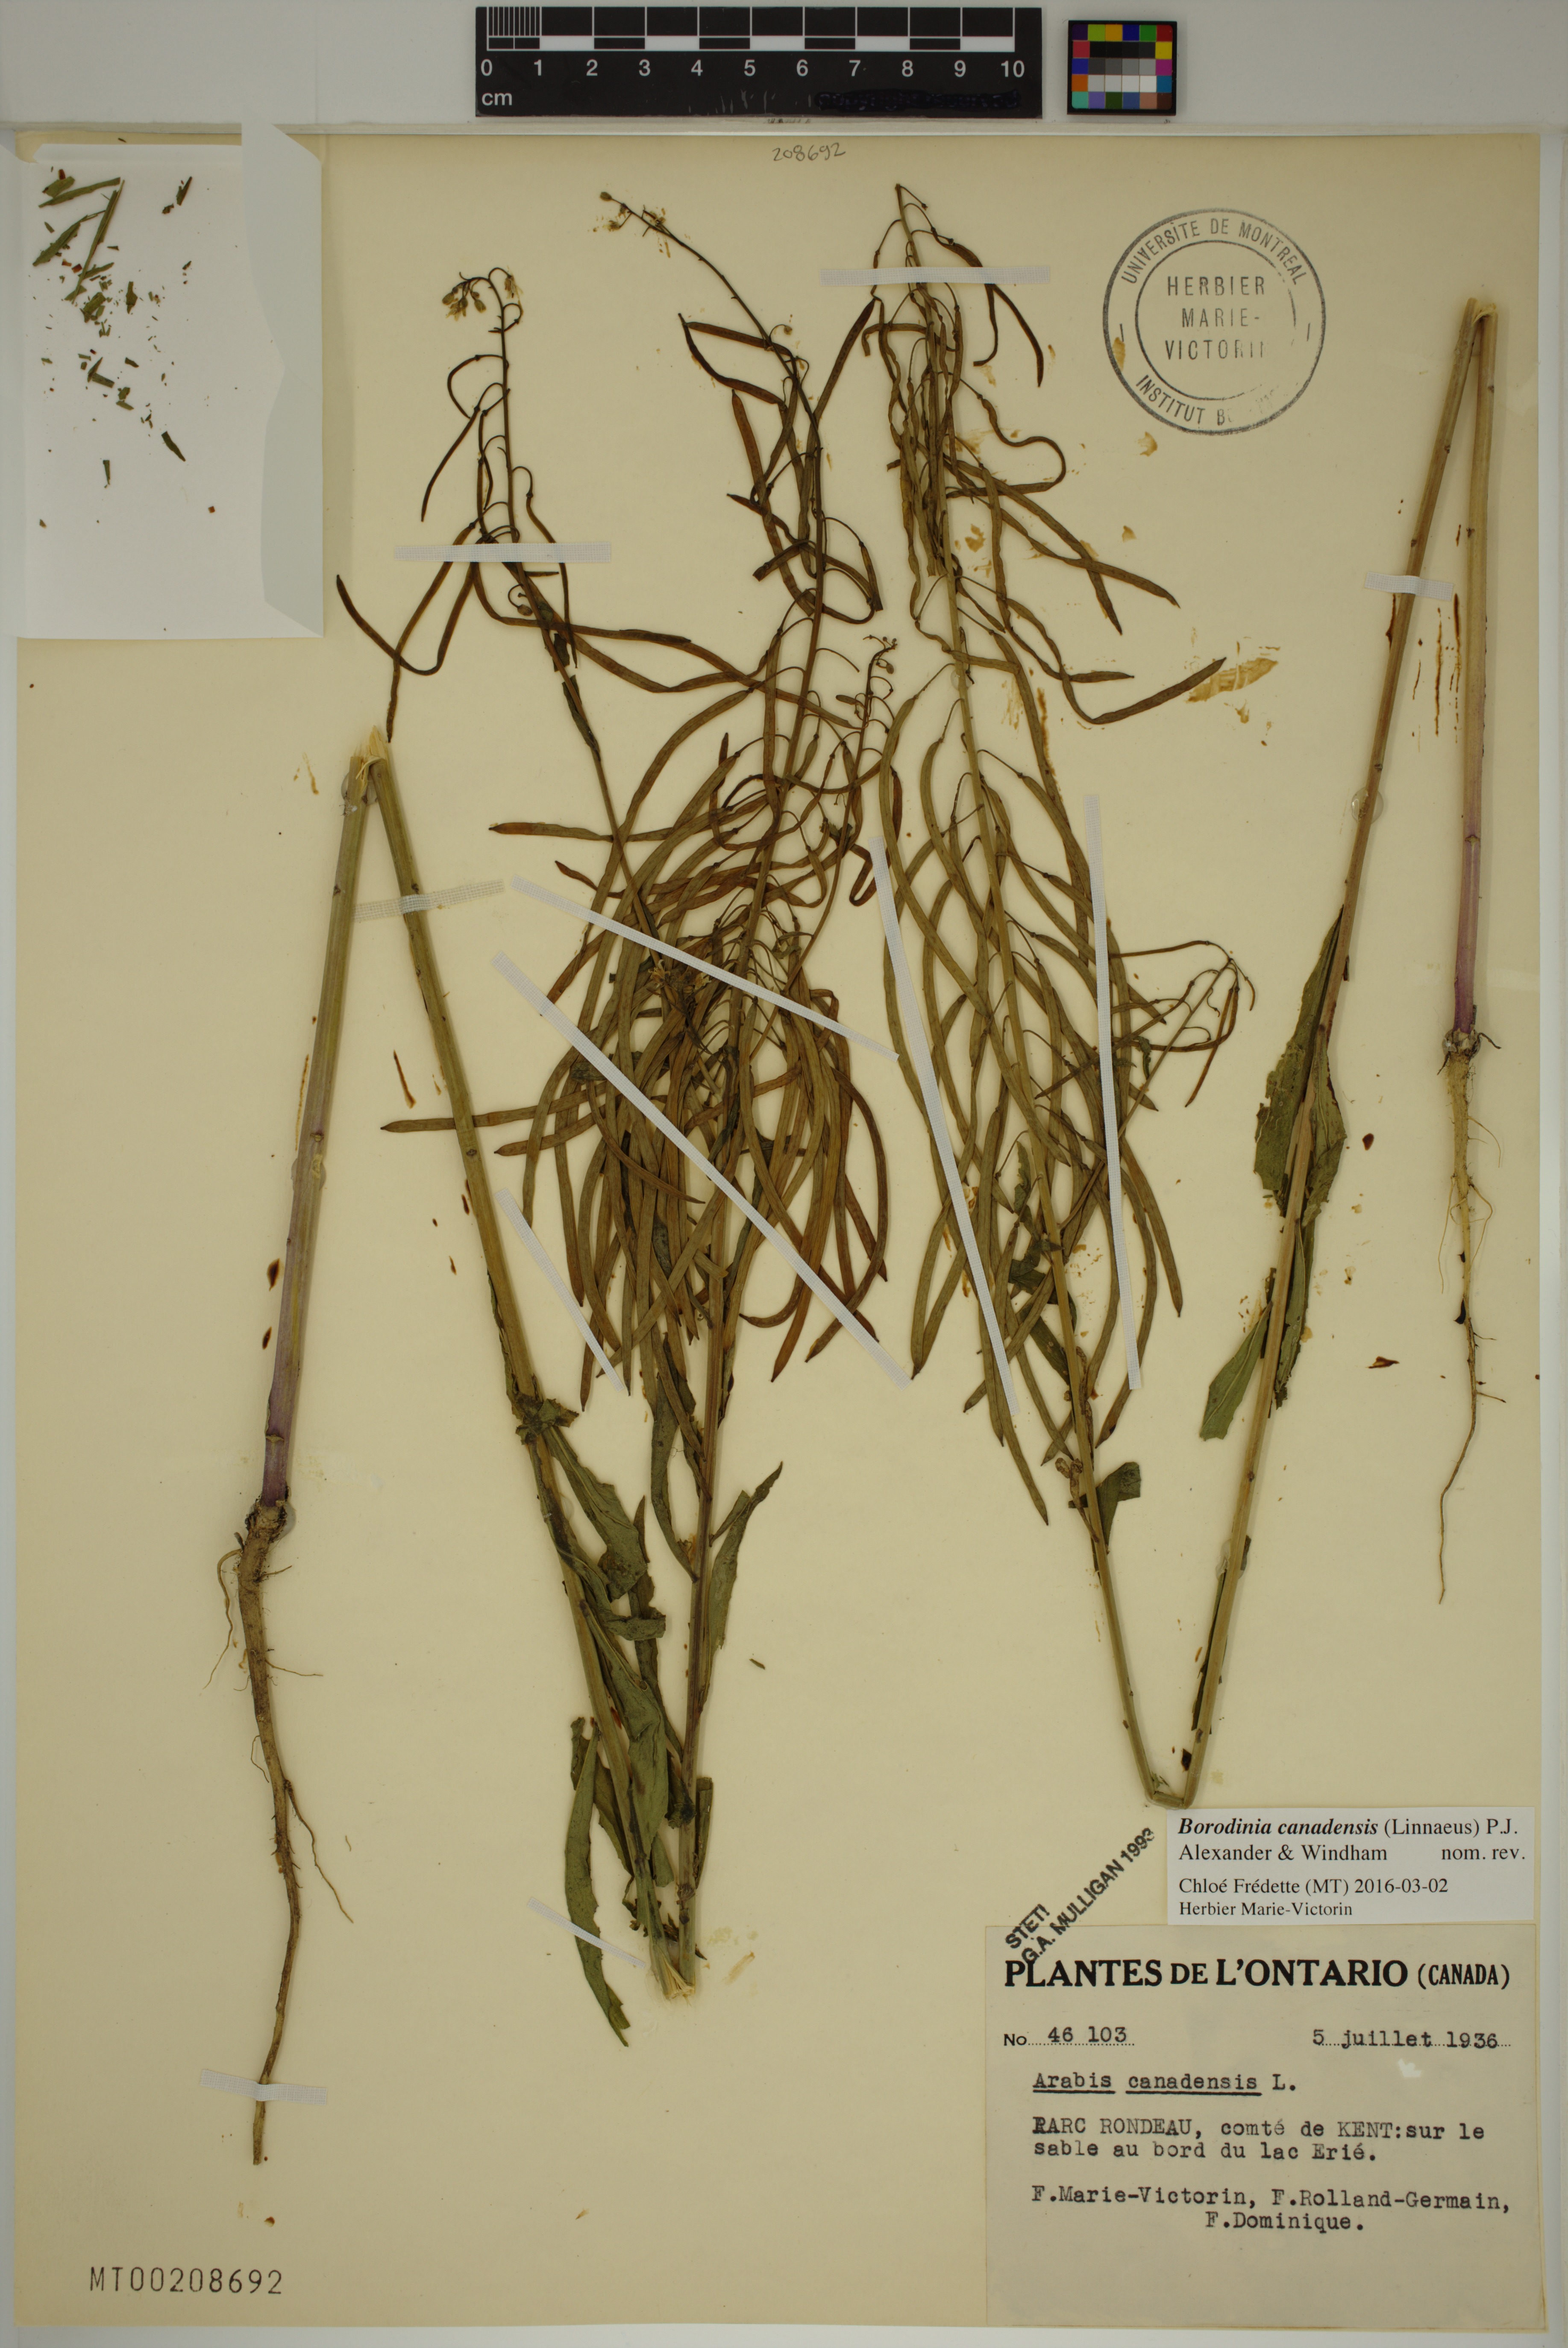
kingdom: Plantae
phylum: Tracheophyta
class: Magnoliopsida
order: Brassicales
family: Brassicaceae
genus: Borodinia
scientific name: Borodinia canadensis
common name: Sicklepod
